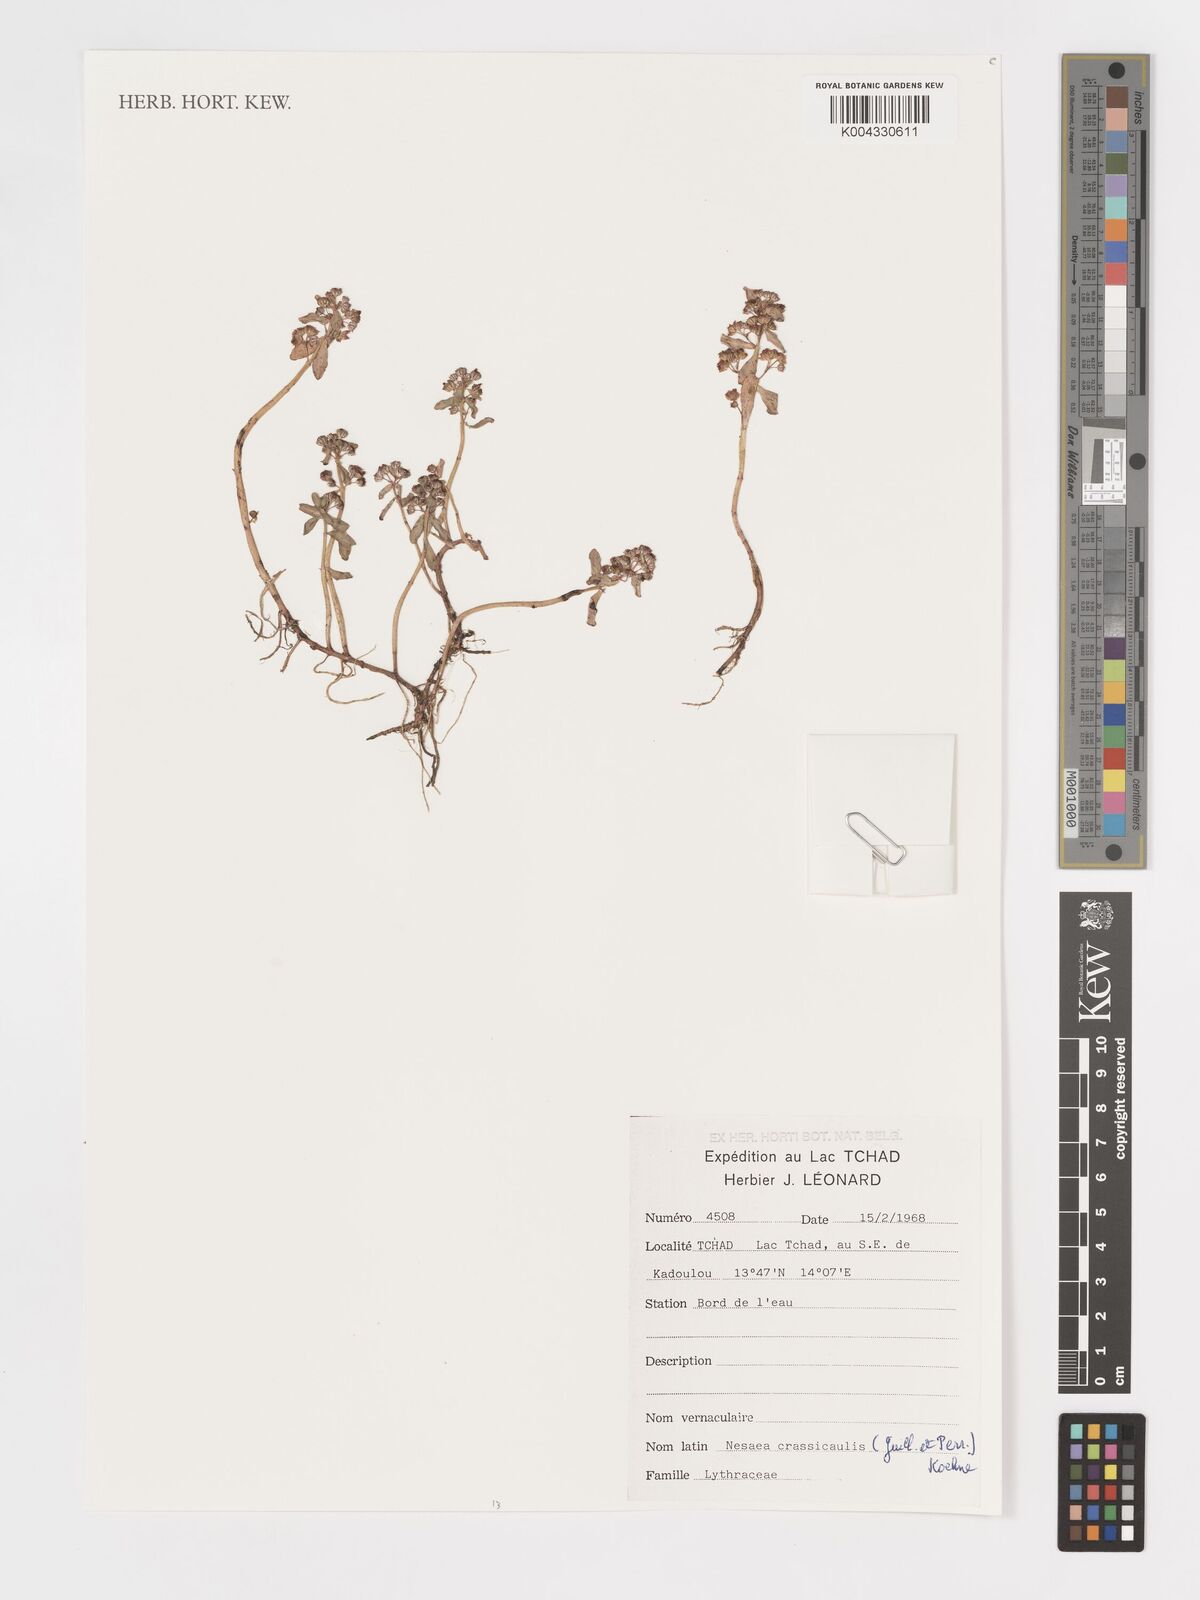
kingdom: Plantae
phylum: Tracheophyta
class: Magnoliopsida
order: Myrtales
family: Lythraceae
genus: Ammannia
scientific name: Ammannia crassicaulis
